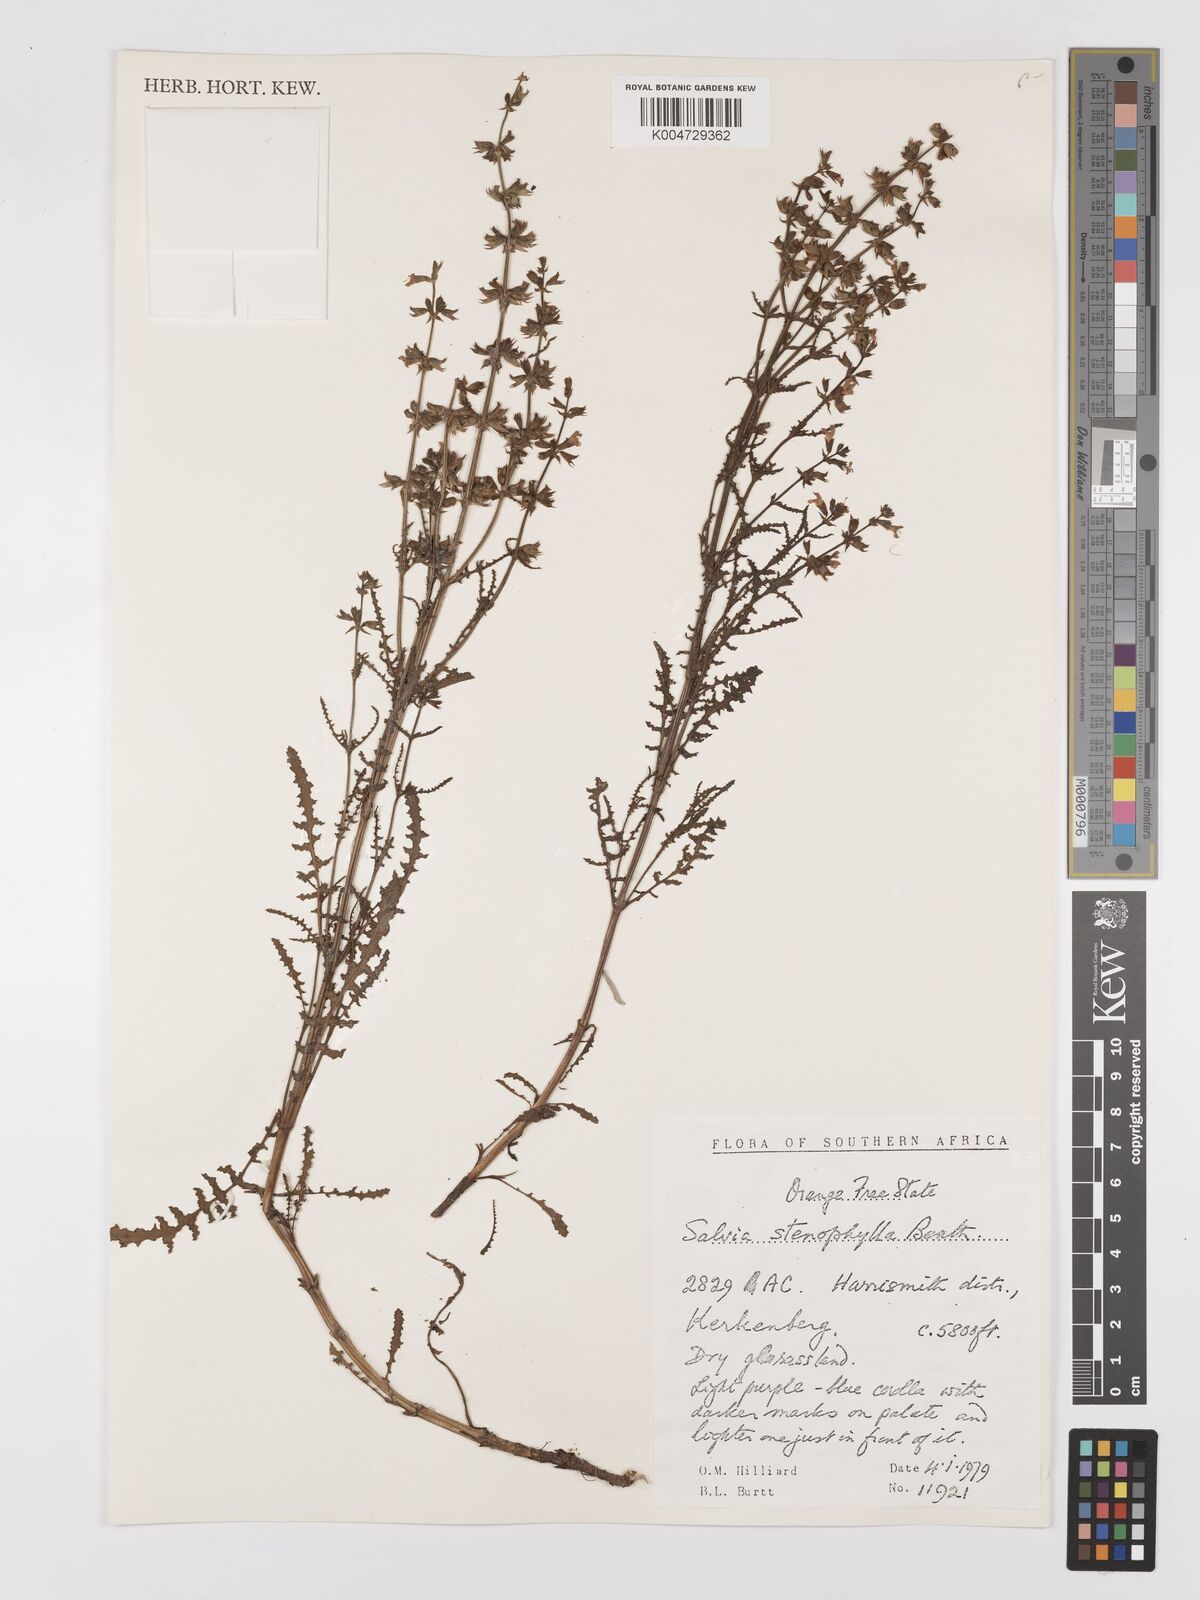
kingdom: Plantae
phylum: Tracheophyta
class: Magnoliopsida
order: Lamiales
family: Lamiaceae
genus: Salvia
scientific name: Salvia stenophylla
